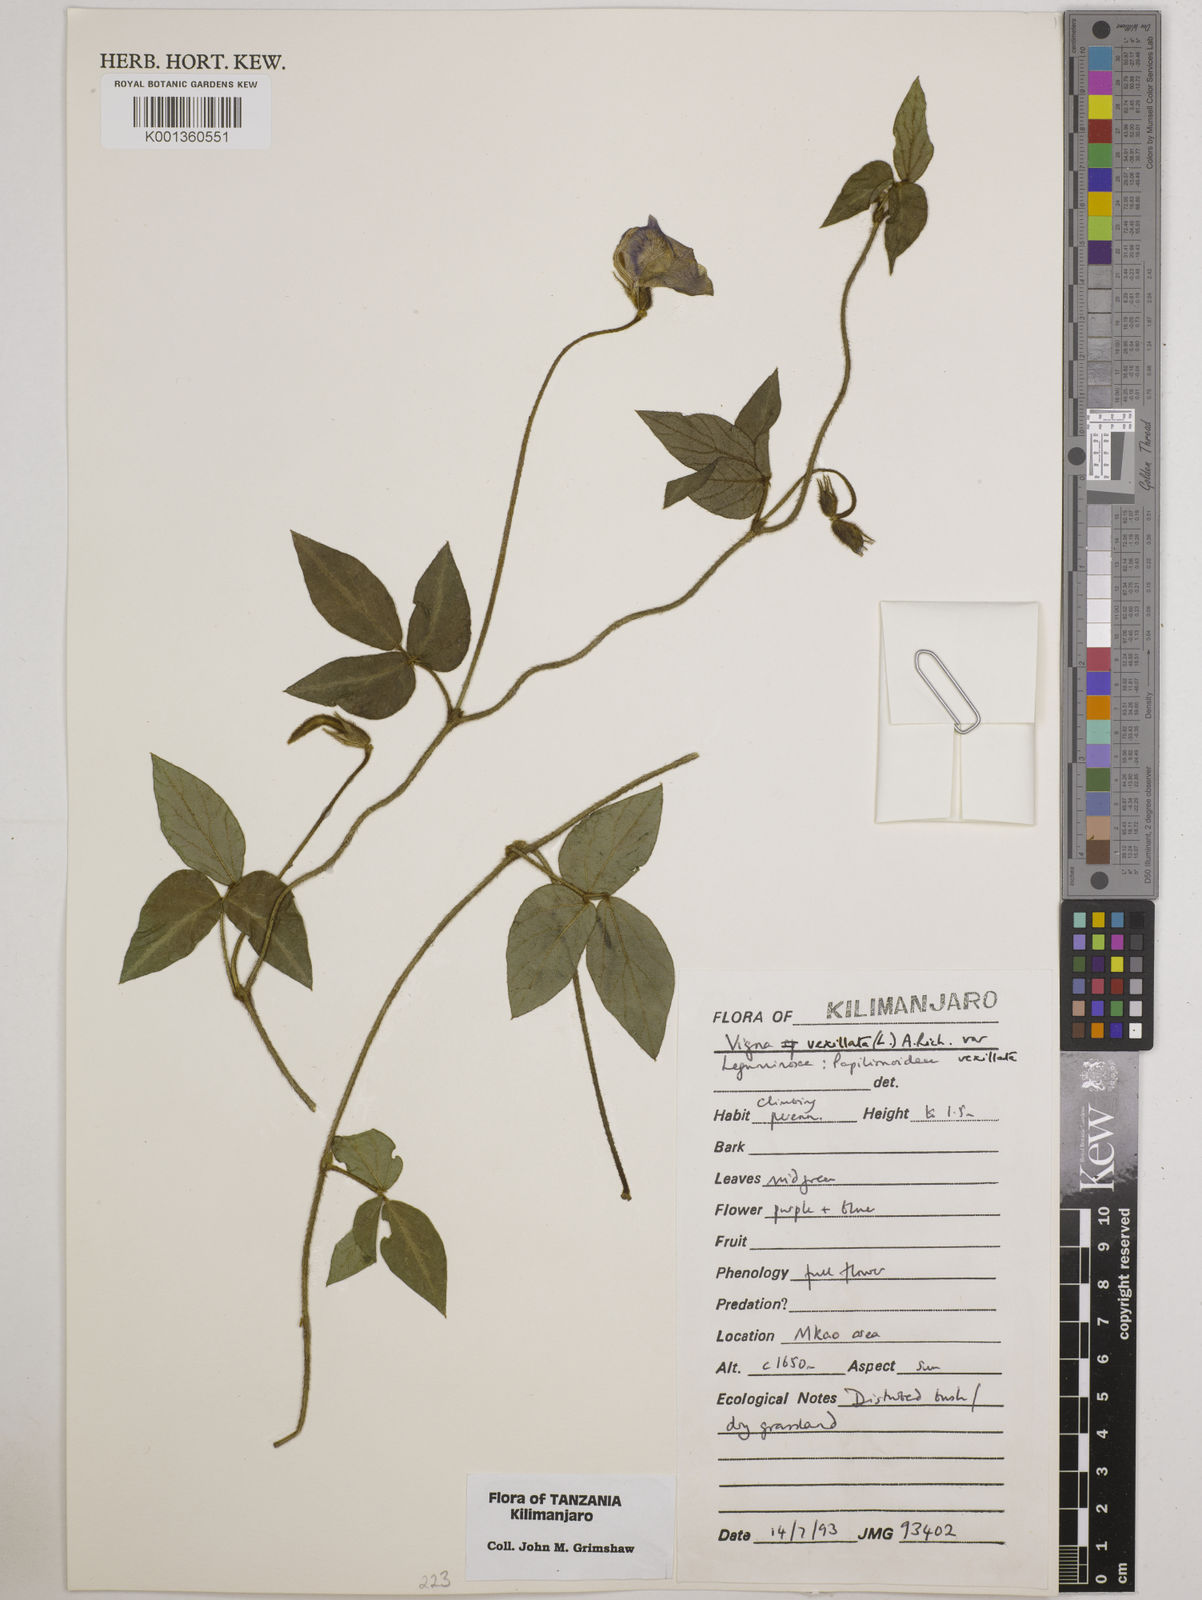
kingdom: Plantae
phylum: Tracheophyta
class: Magnoliopsida
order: Fabales
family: Fabaceae
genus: Vigna
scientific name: Vigna vexillata
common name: Zombi pea
